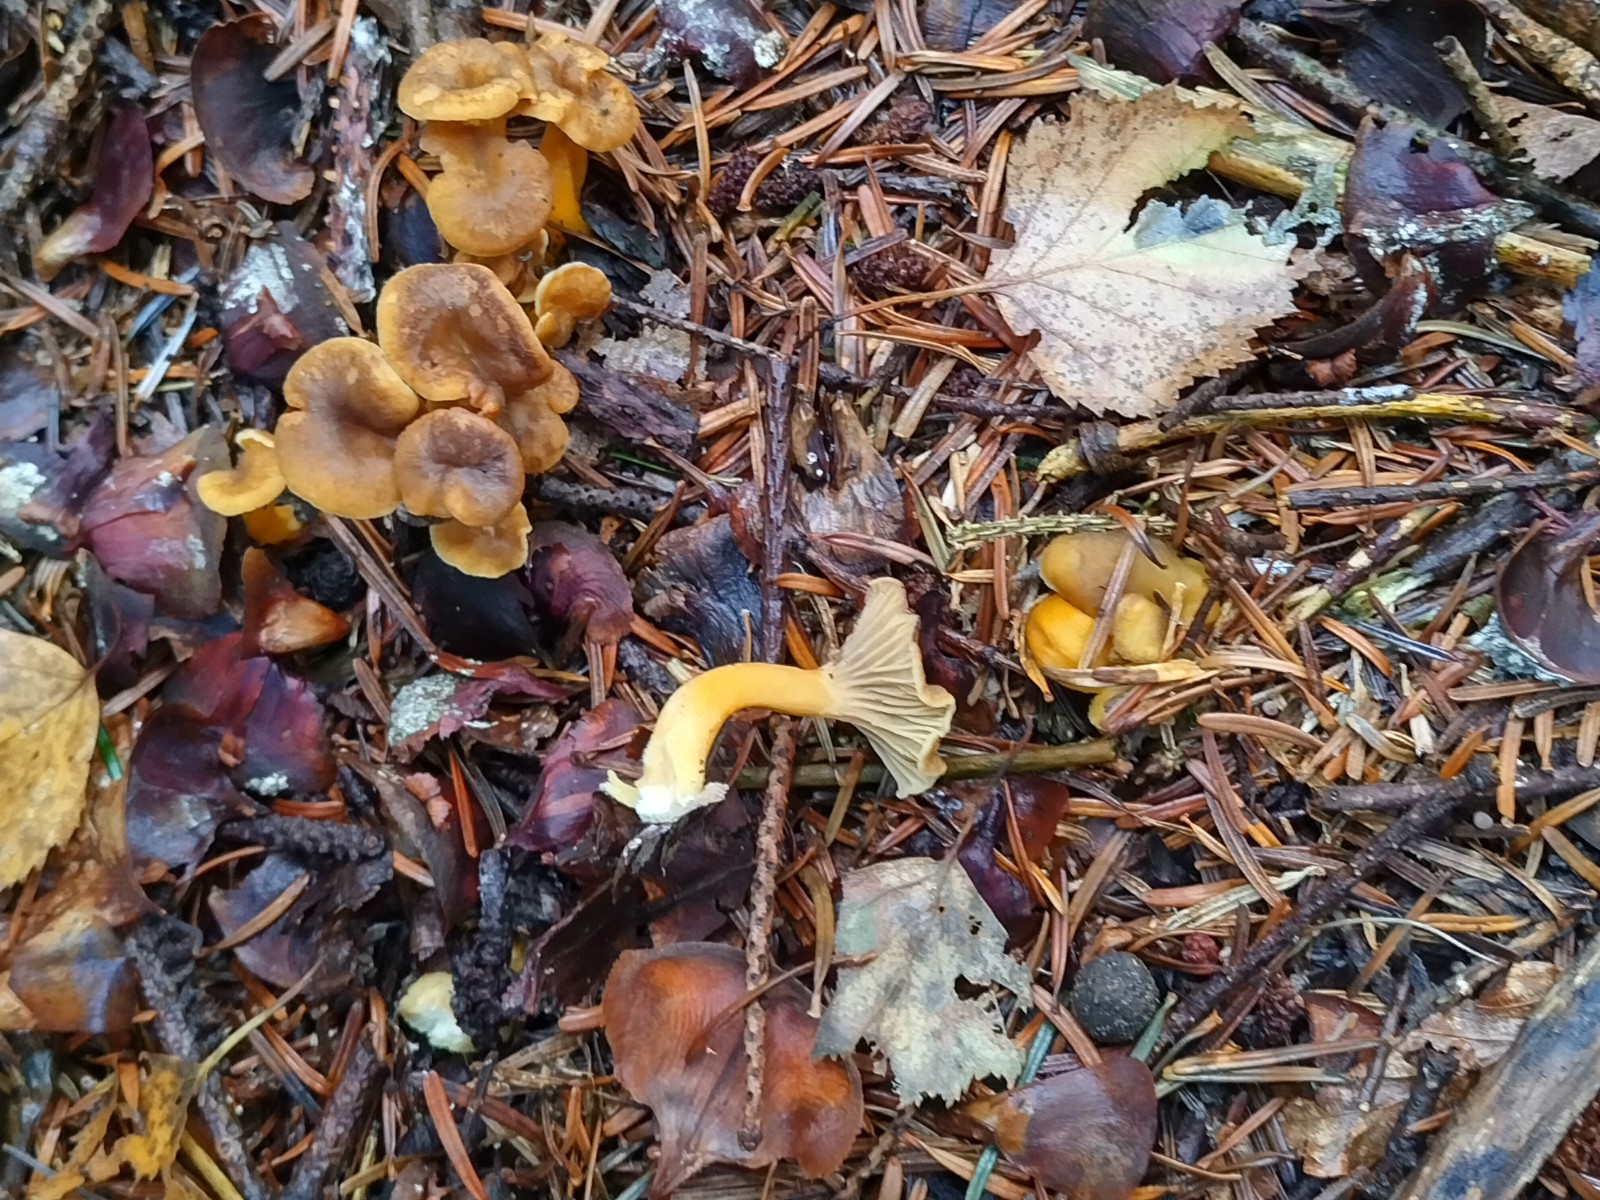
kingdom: Fungi
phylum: Basidiomycota
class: Agaricomycetes
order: Cantharellales
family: Hydnaceae
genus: Craterellus
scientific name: Craterellus tubaeformis
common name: tragt-kantarel
